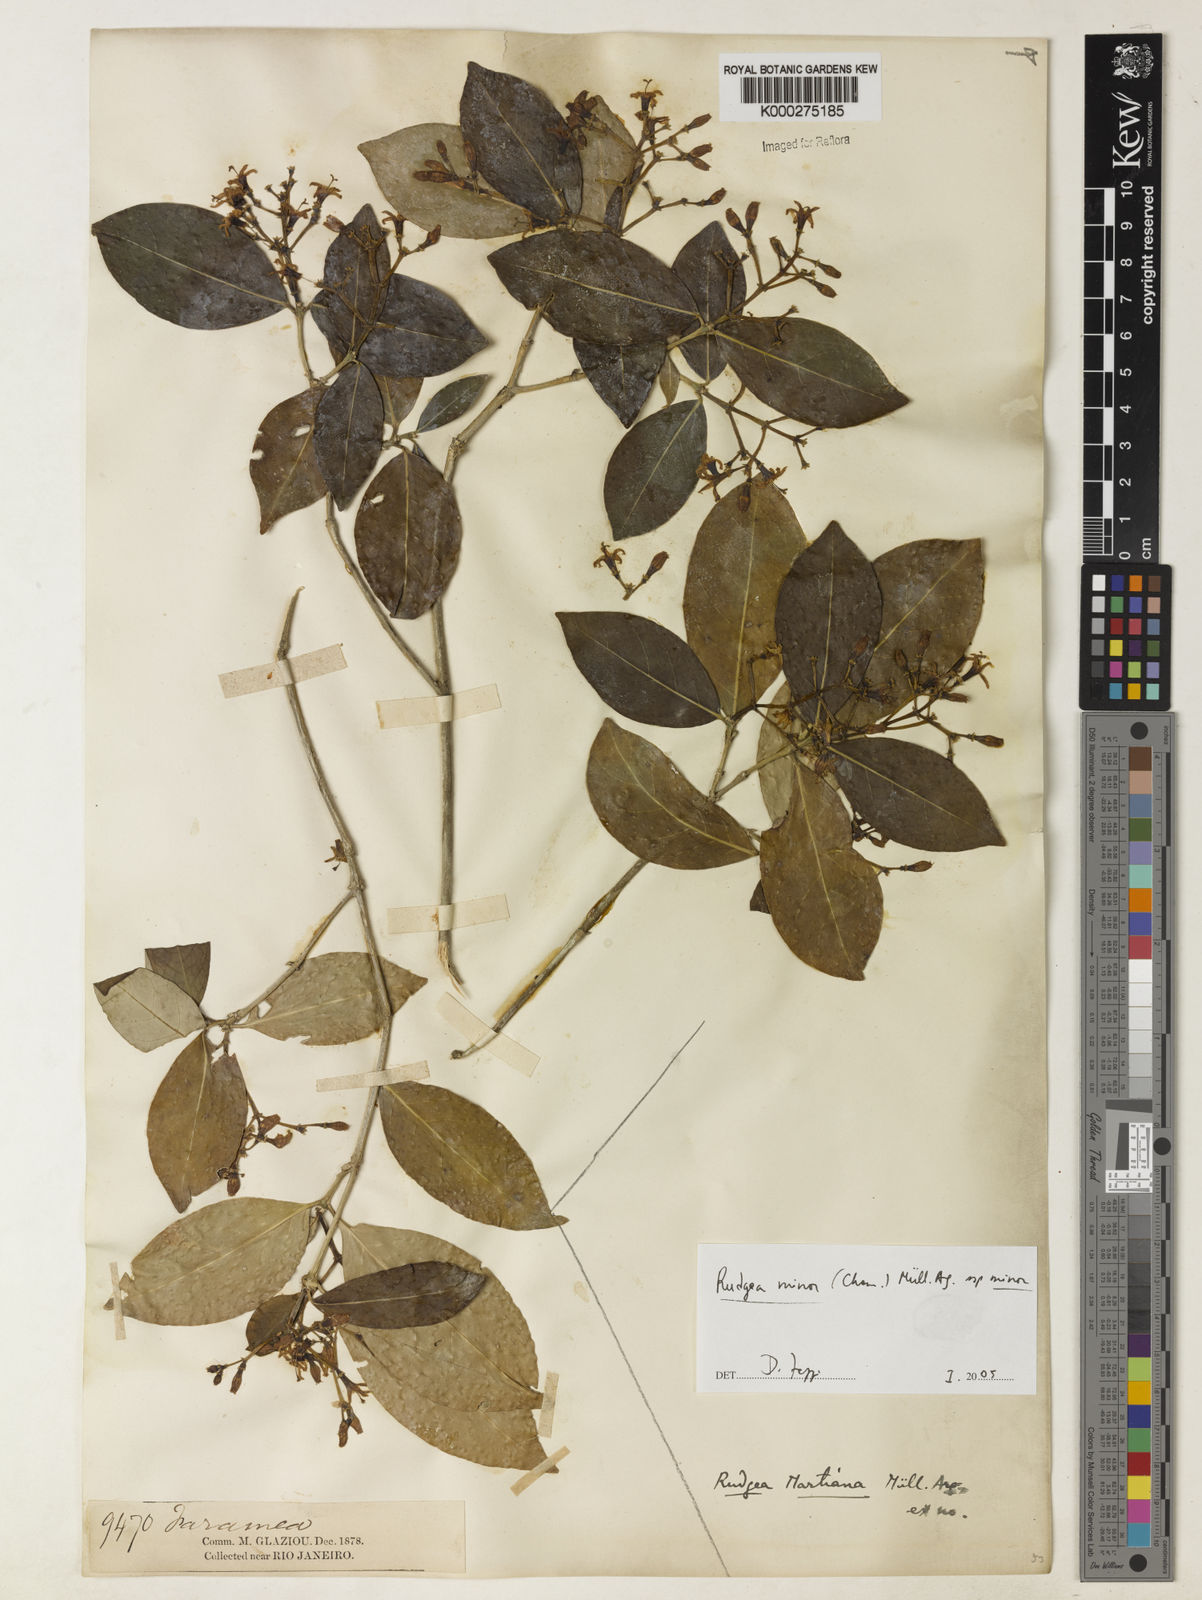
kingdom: Plantae
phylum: Tracheophyta
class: Magnoliopsida
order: Gentianales
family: Rubiaceae
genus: Rudgea
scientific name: Rudgea minor
